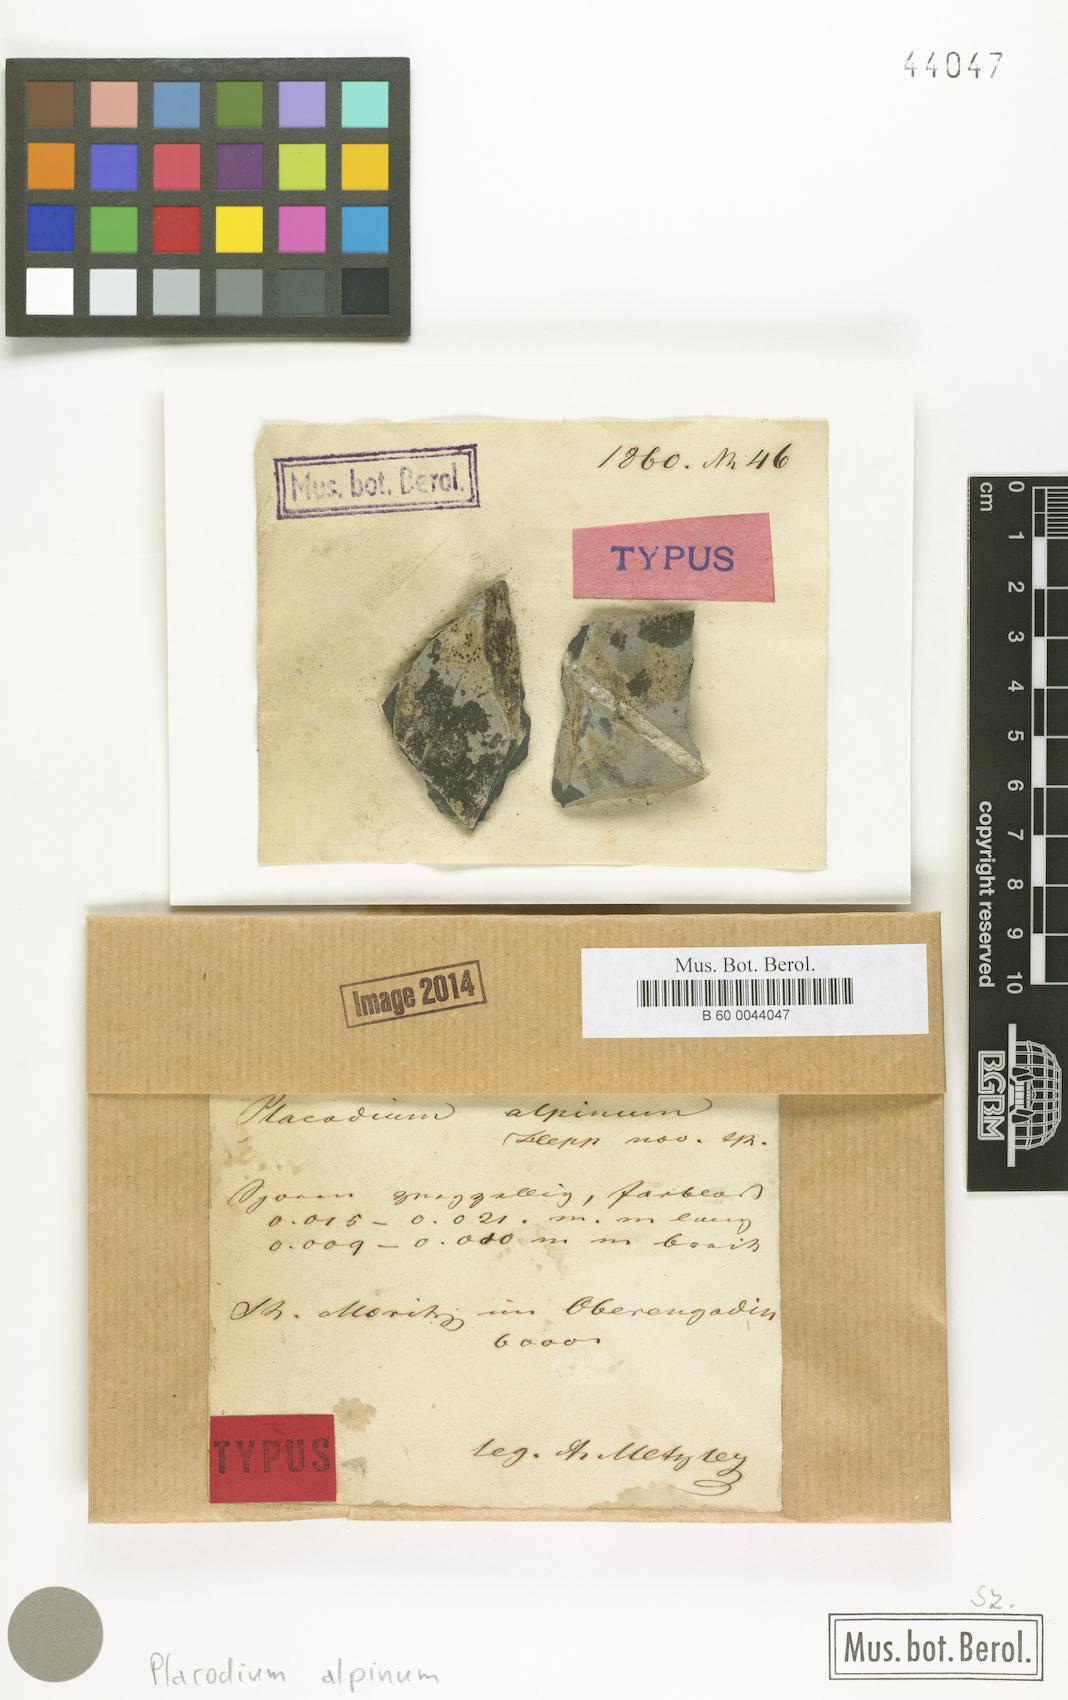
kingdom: Plantae
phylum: Tracheophyta
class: Magnoliopsida
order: Gentianales
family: Rubiaceae
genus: Plocama
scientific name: Plocama
